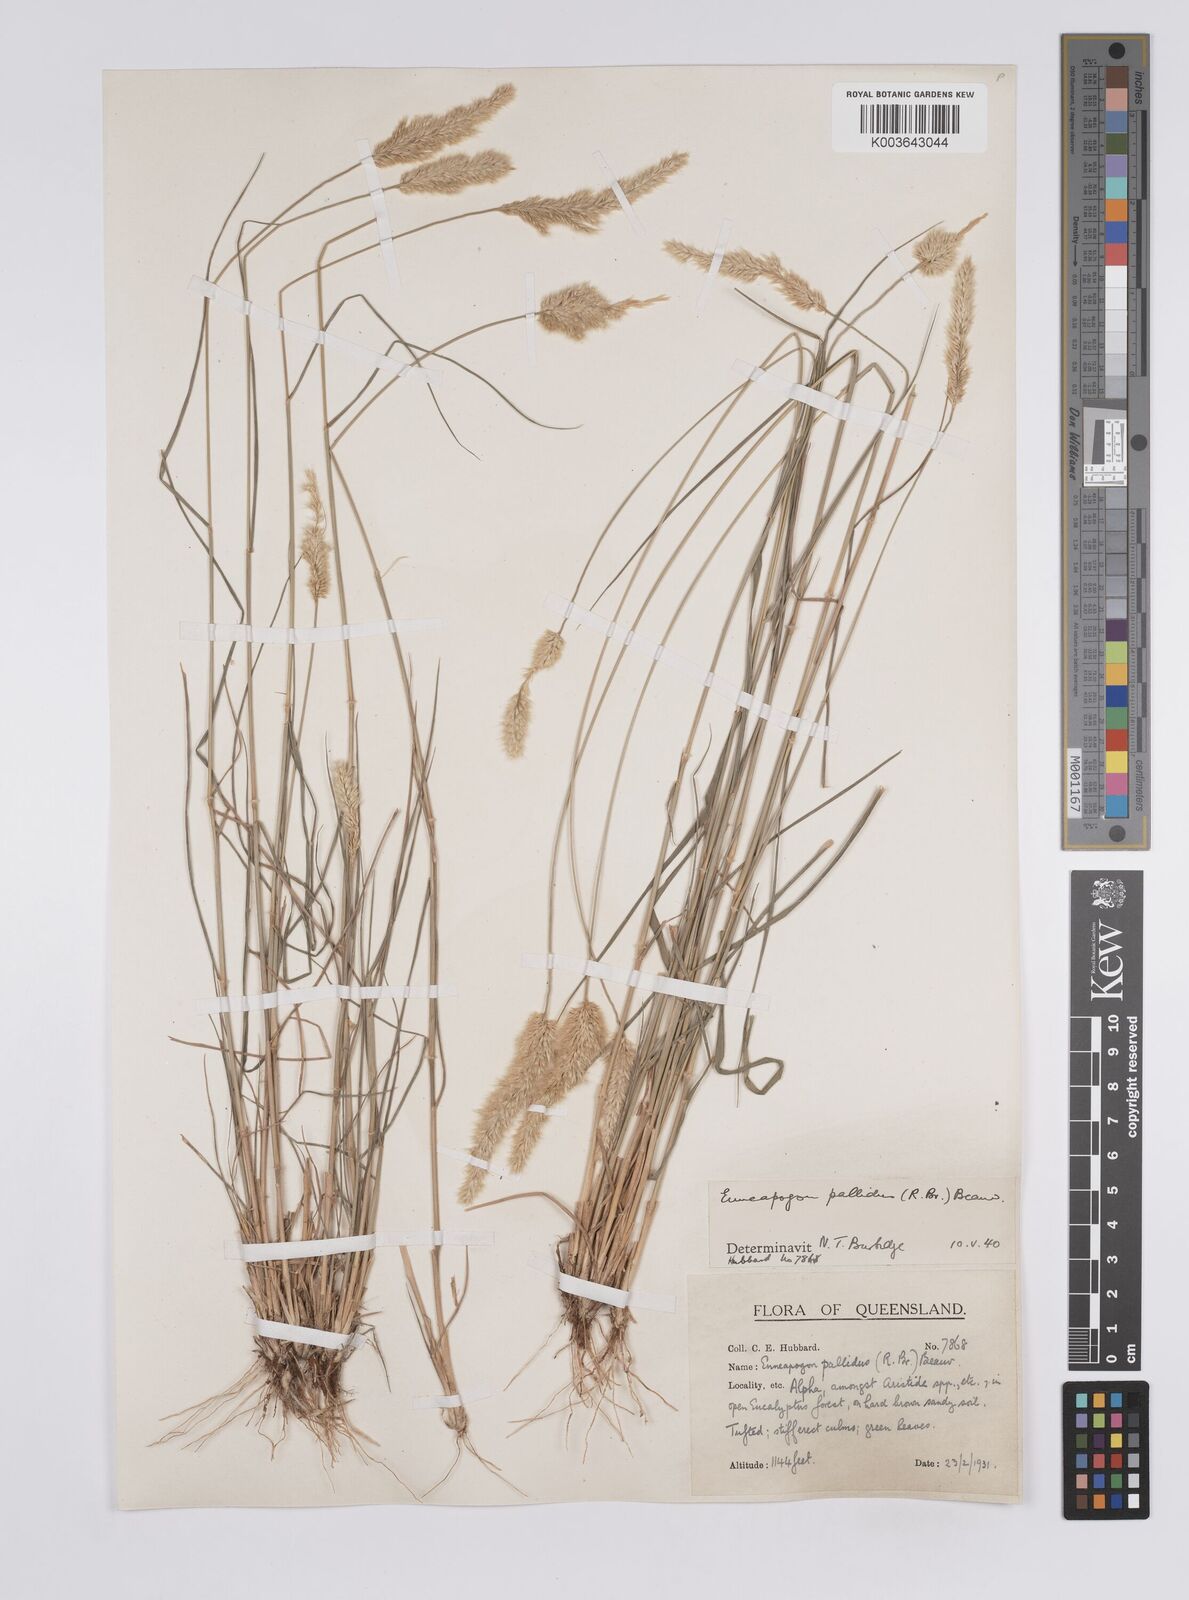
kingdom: Plantae
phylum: Tracheophyta
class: Liliopsida
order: Poales
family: Poaceae
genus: Enneapogon
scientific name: Enneapogon pallidus
